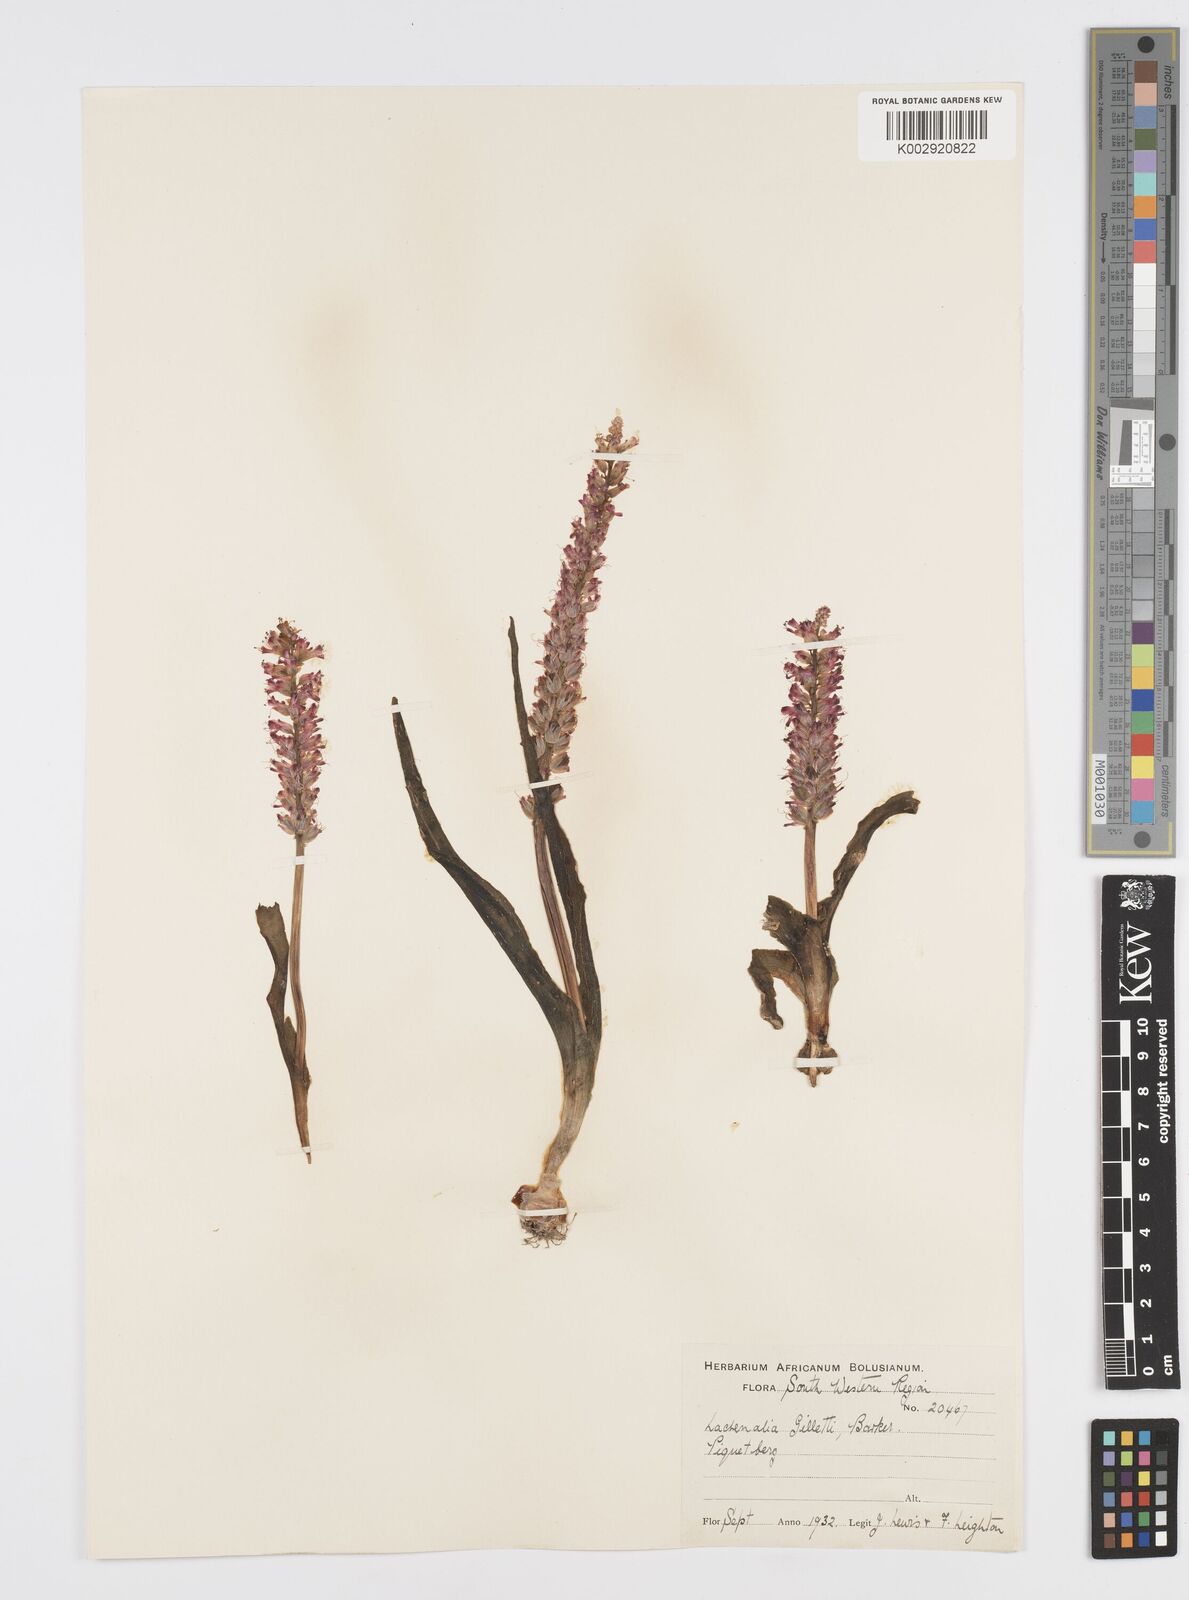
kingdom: Plantae
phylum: Tracheophyta
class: Liliopsida
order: Asparagales
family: Asparagaceae
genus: Lachenalia
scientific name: Lachenalia pallida
